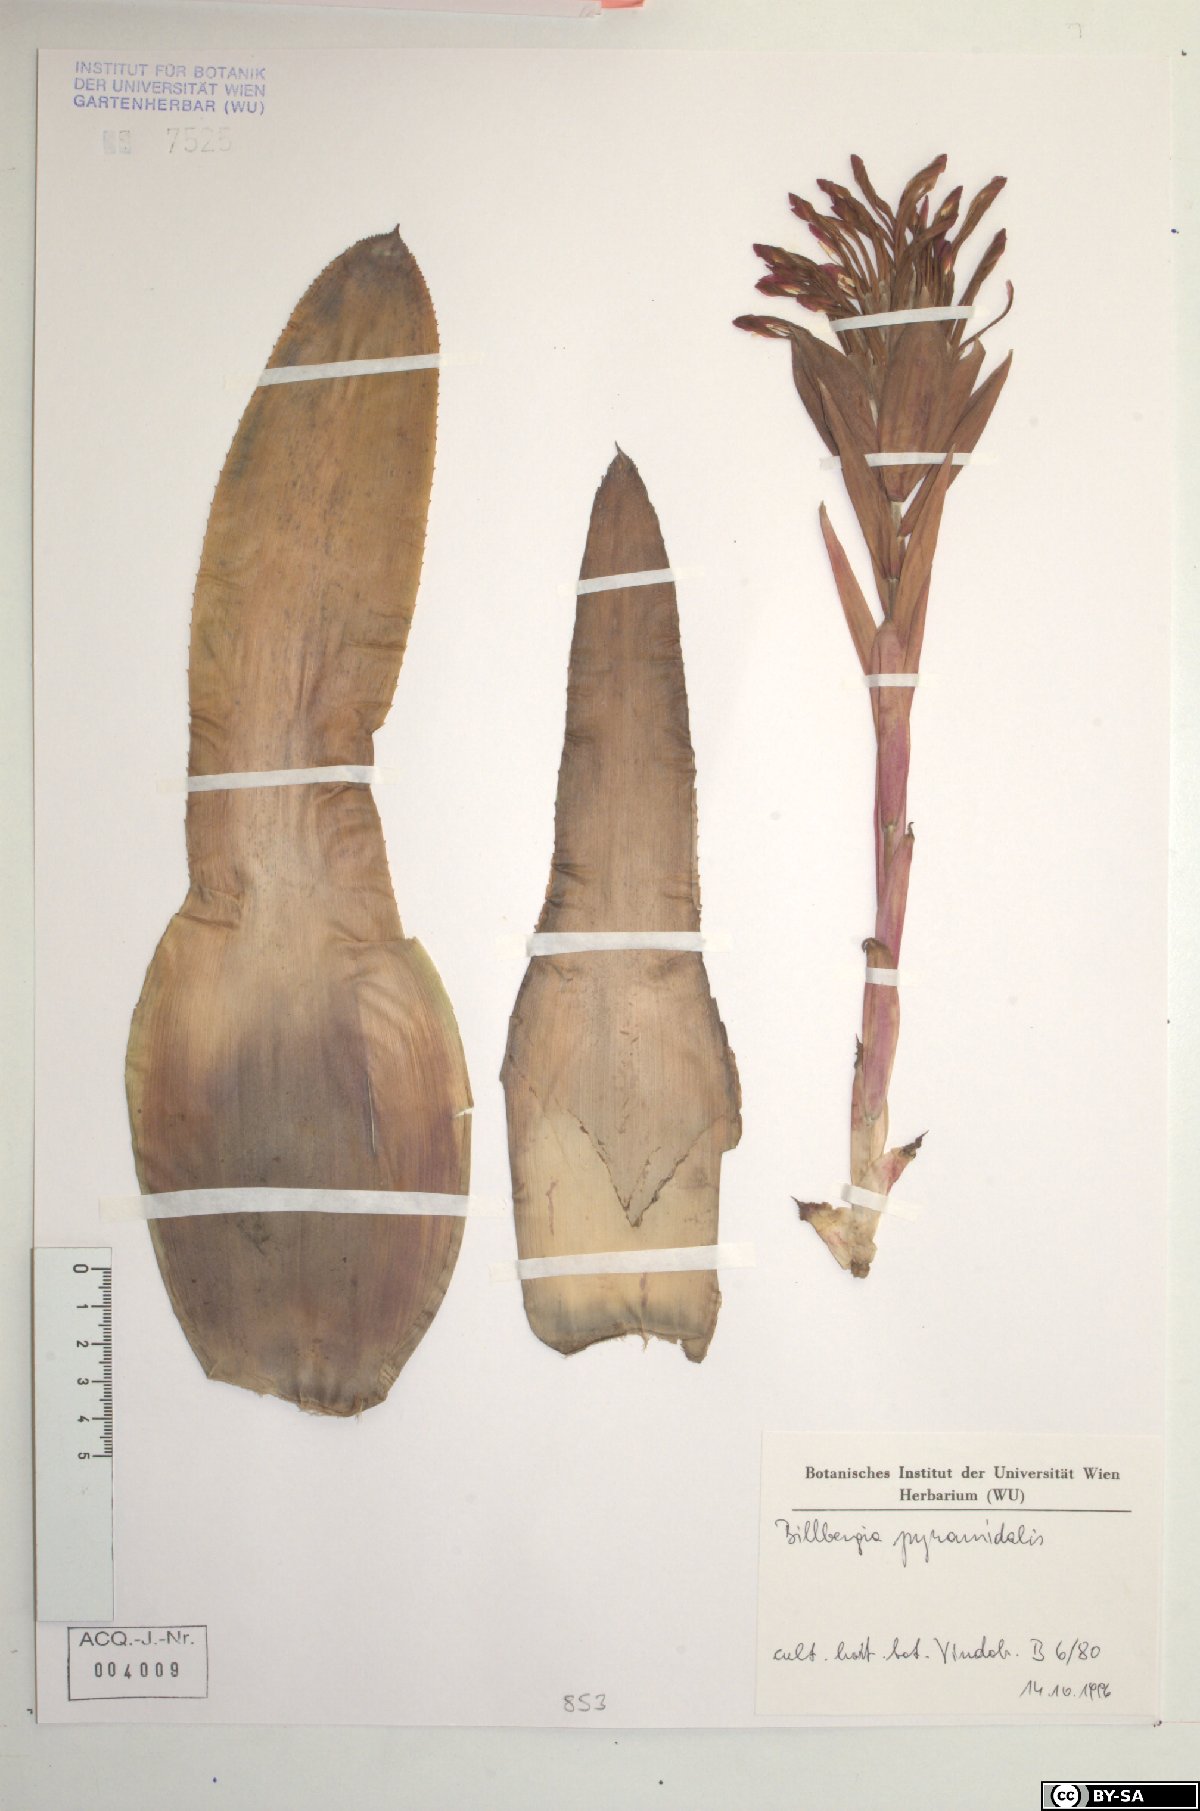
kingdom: Plantae
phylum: Tracheophyta
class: Liliopsida
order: Poales
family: Bromeliaceae
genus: Billbergia
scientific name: Billbergia pyramidalis
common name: Foolproofplant
